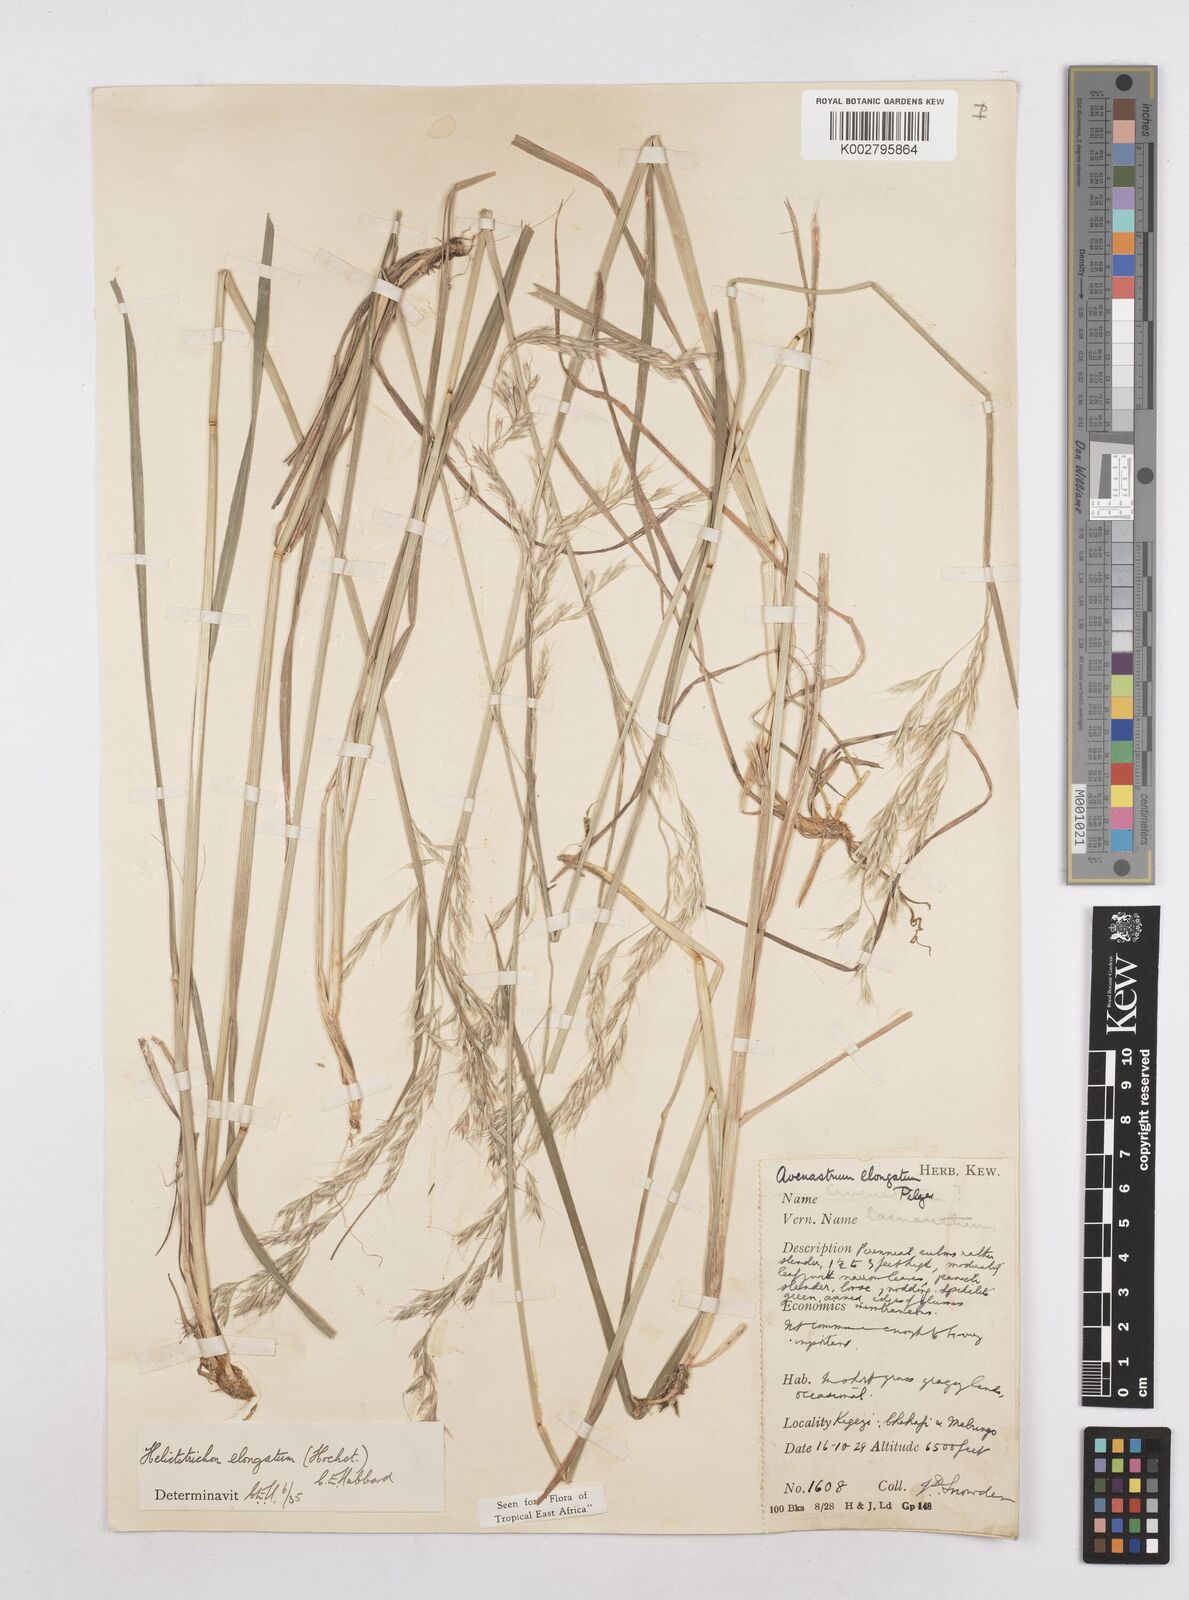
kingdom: Plantae
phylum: Tracheophyta
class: Liliopsida
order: Poales
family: Poaceae
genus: Trisetopsis
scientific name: Trisetopsis elongata
